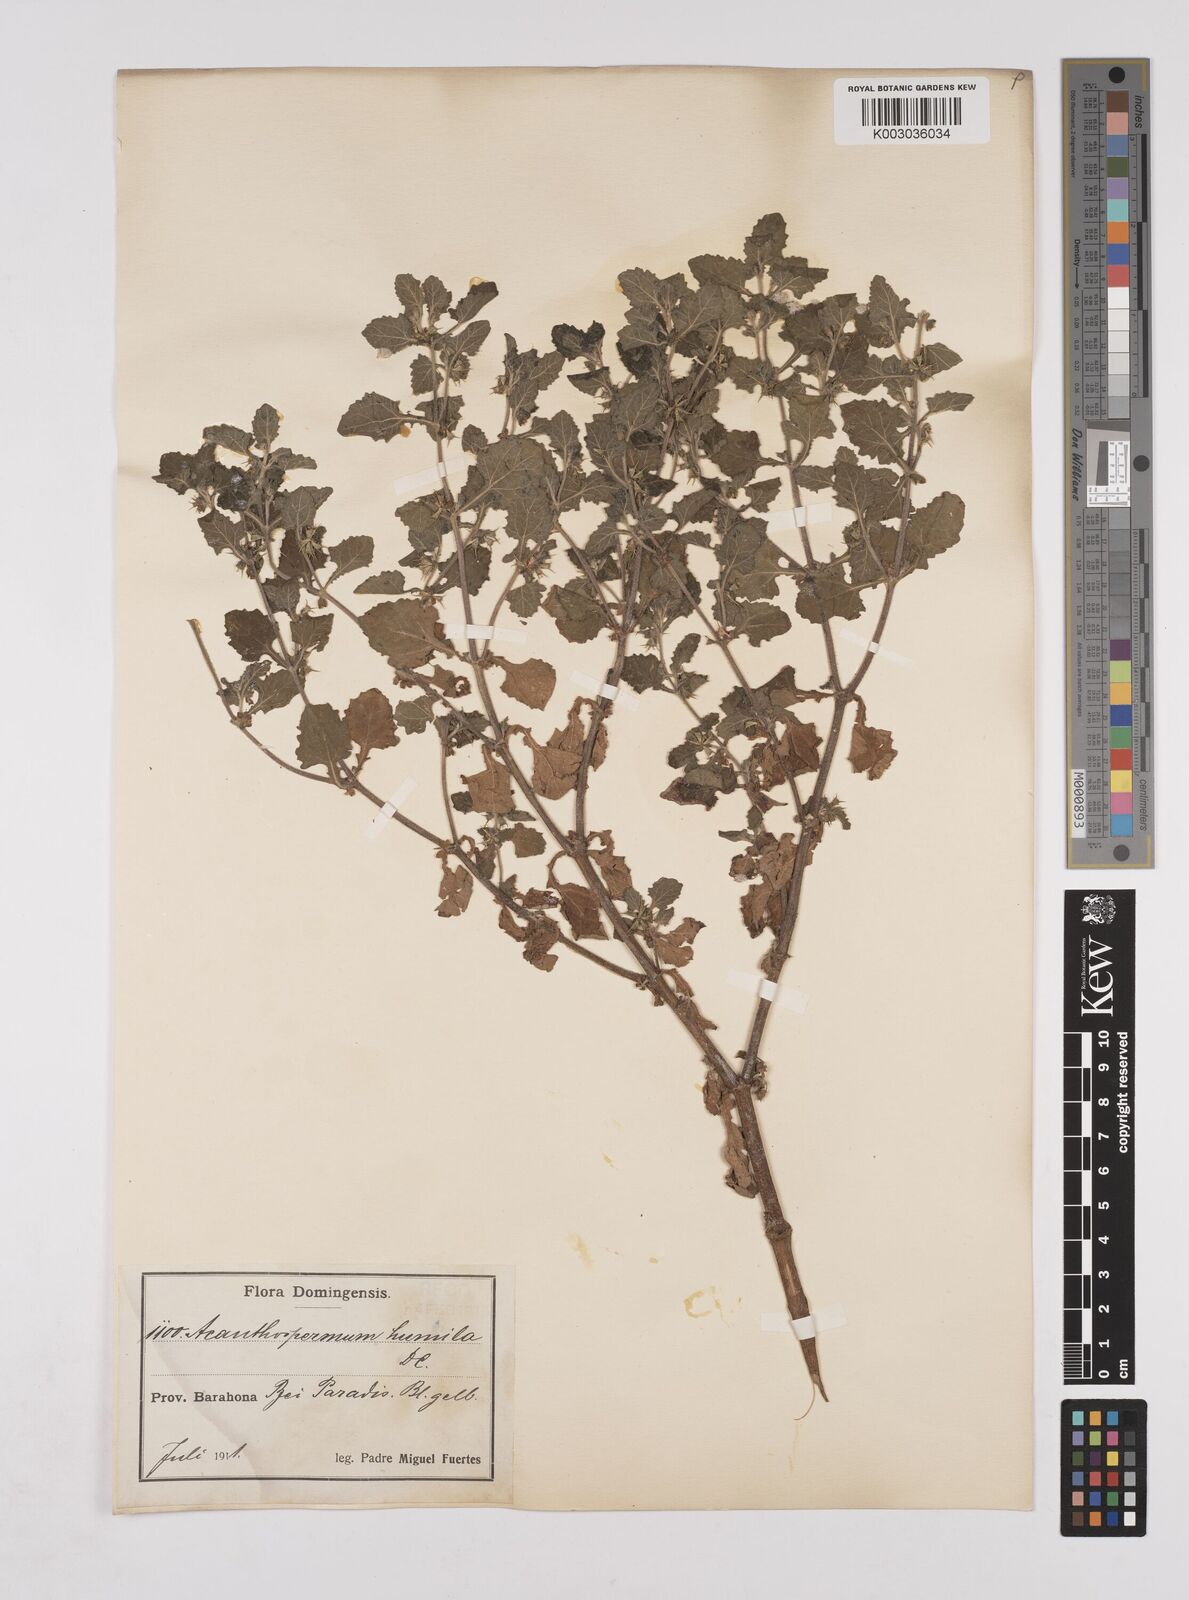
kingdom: Plantae
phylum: Tracheophyta
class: Magnoliopsida
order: Asterales
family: Asteraceae
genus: Acanthospermum
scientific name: Acanthospermum humile
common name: Low starbur
